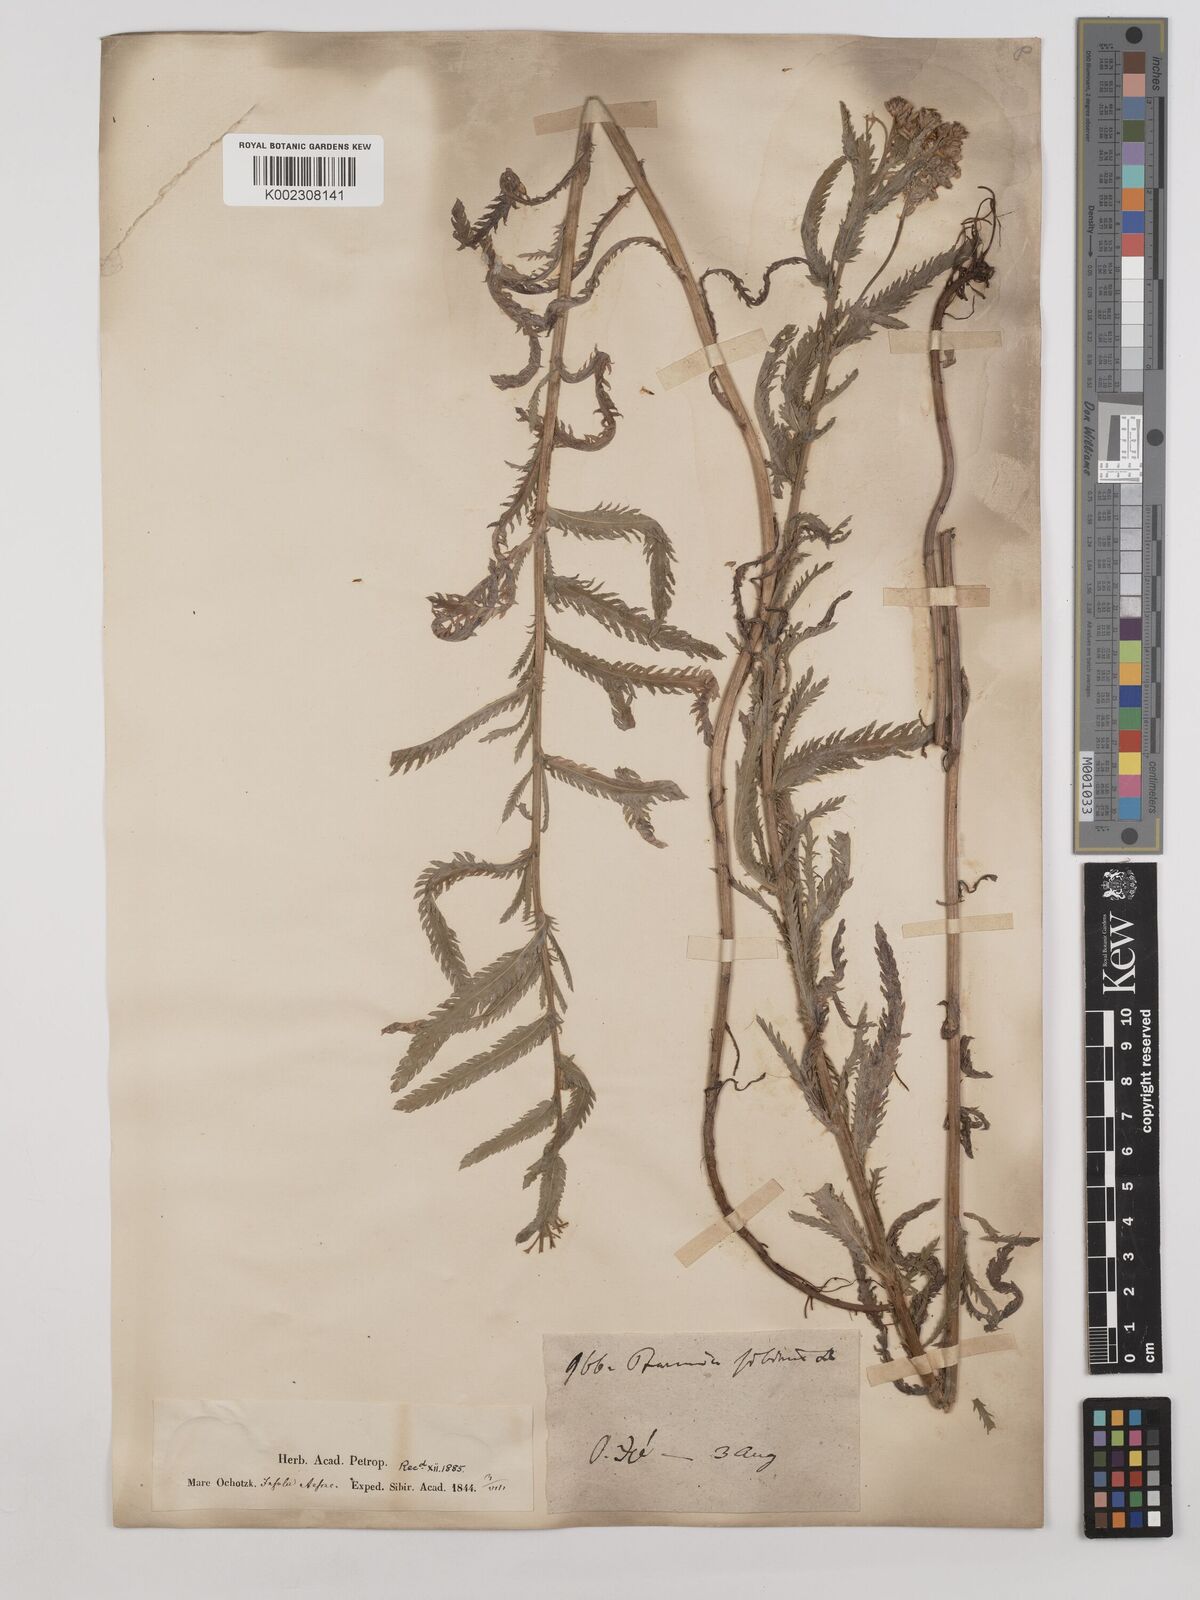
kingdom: Plantae
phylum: Tracheophyta
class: Magnoliopsida
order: Asterales
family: Asteraceae
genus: Achillea
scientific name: Achillea alpina
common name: Siberian yarrow
